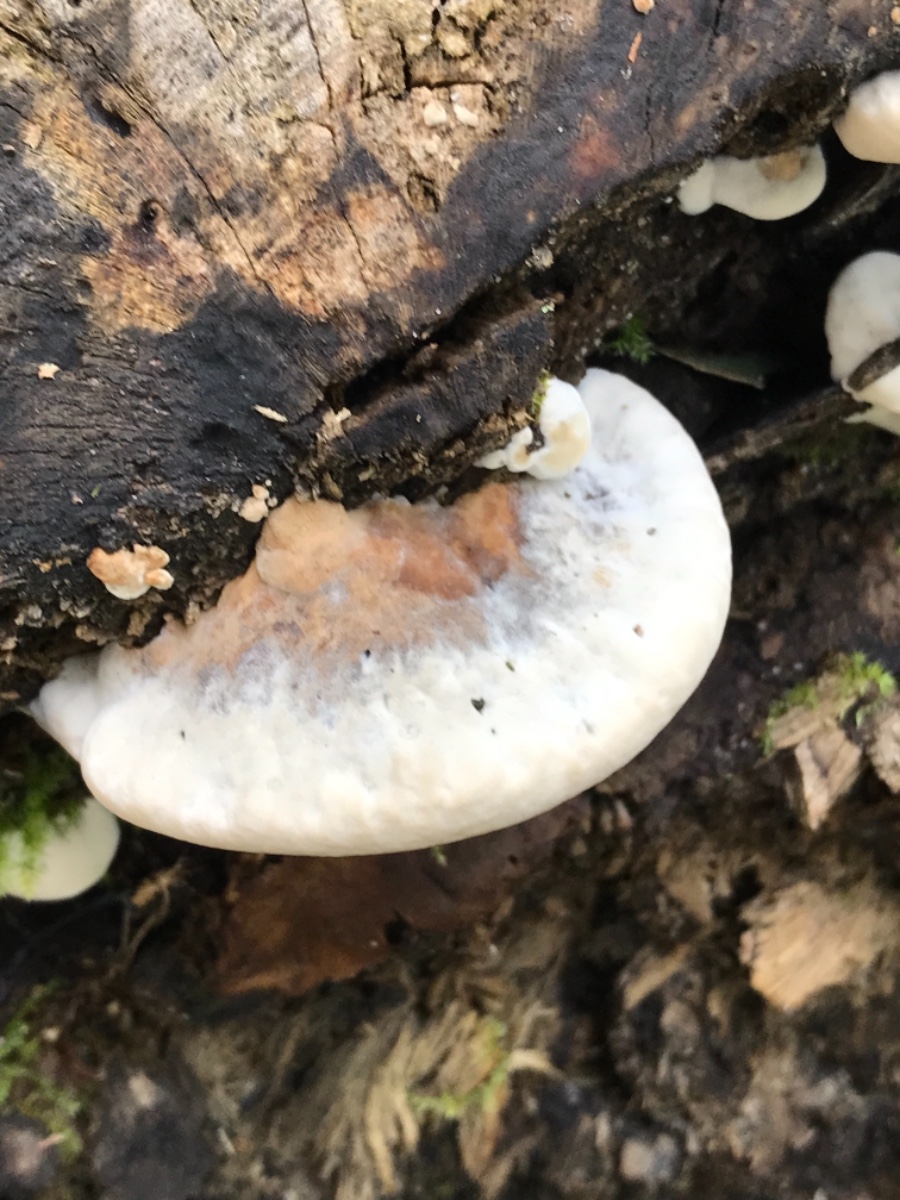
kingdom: Fungi
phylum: Basidiomycota
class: Agaricomycetes
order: Polyporales
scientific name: Polyporales
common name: poresvampordenen
